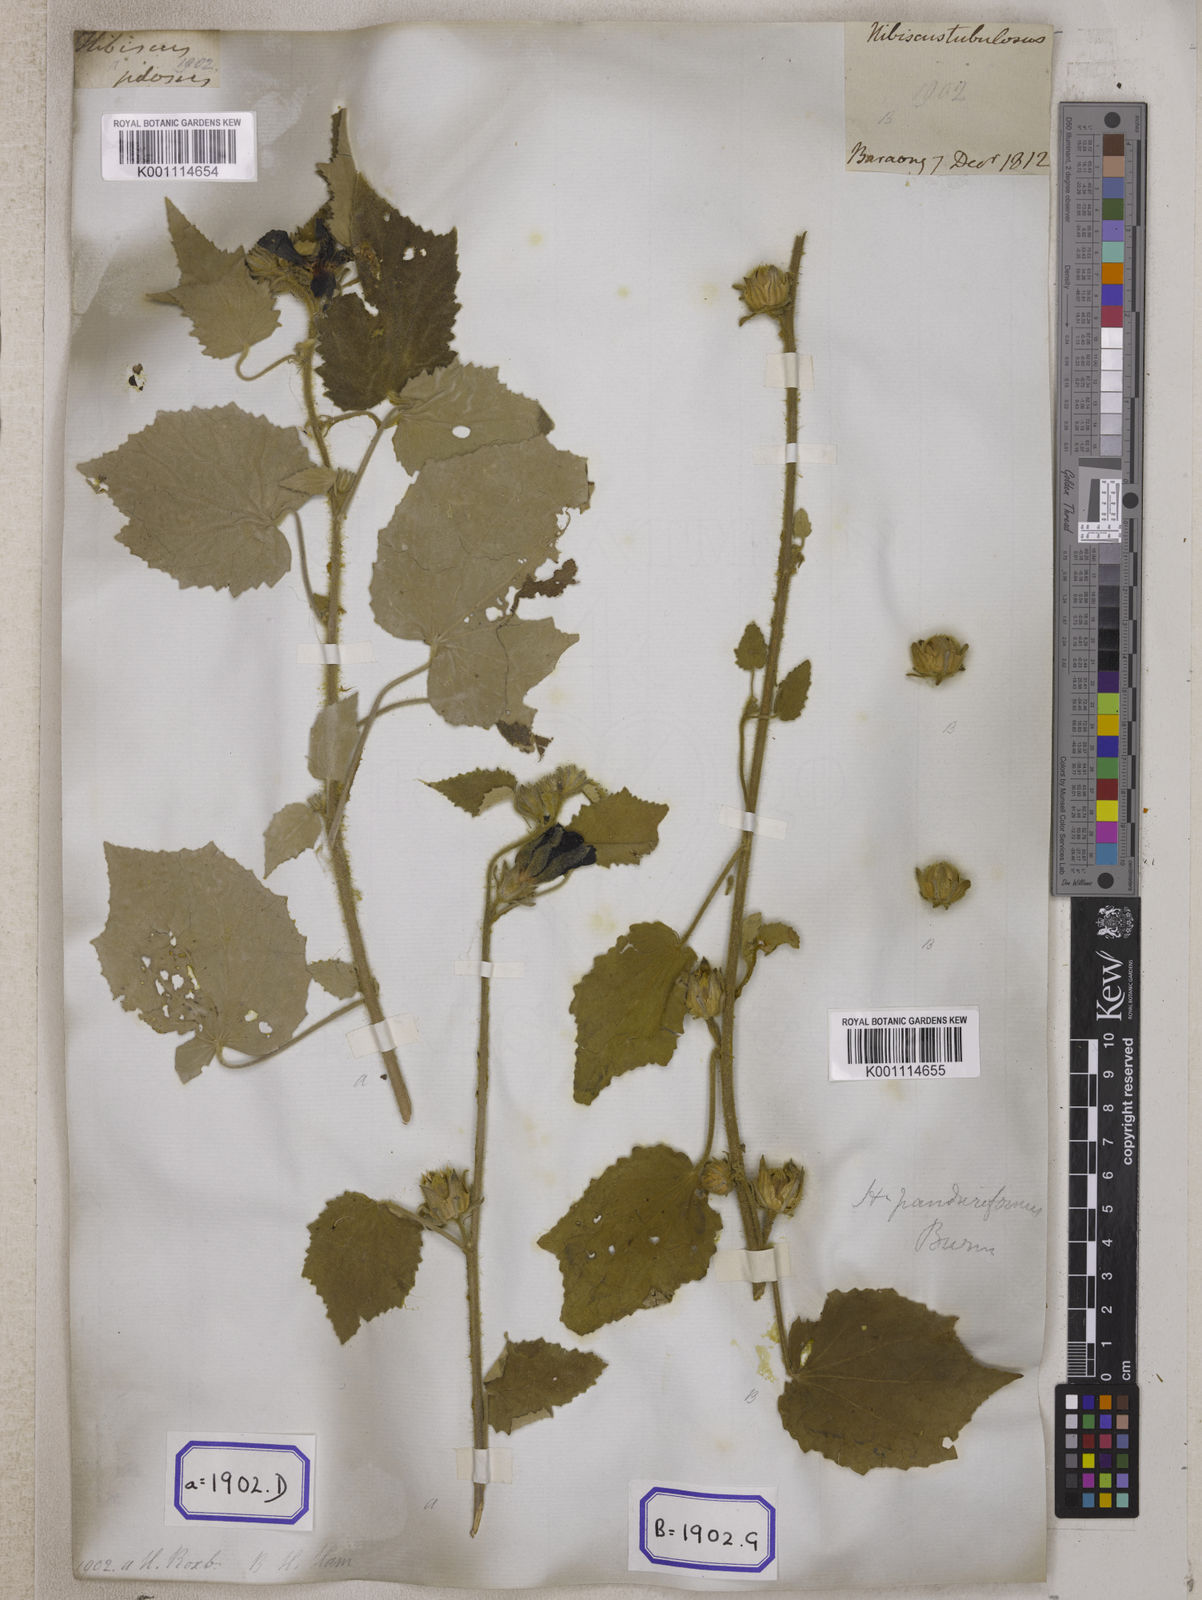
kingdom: Plantae
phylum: Tracheophyta
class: Magnoliopsida
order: Malvales
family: Malvaceae
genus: Talipariti
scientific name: Talipariti macrophyllum
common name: Largeleaf rosemallow
